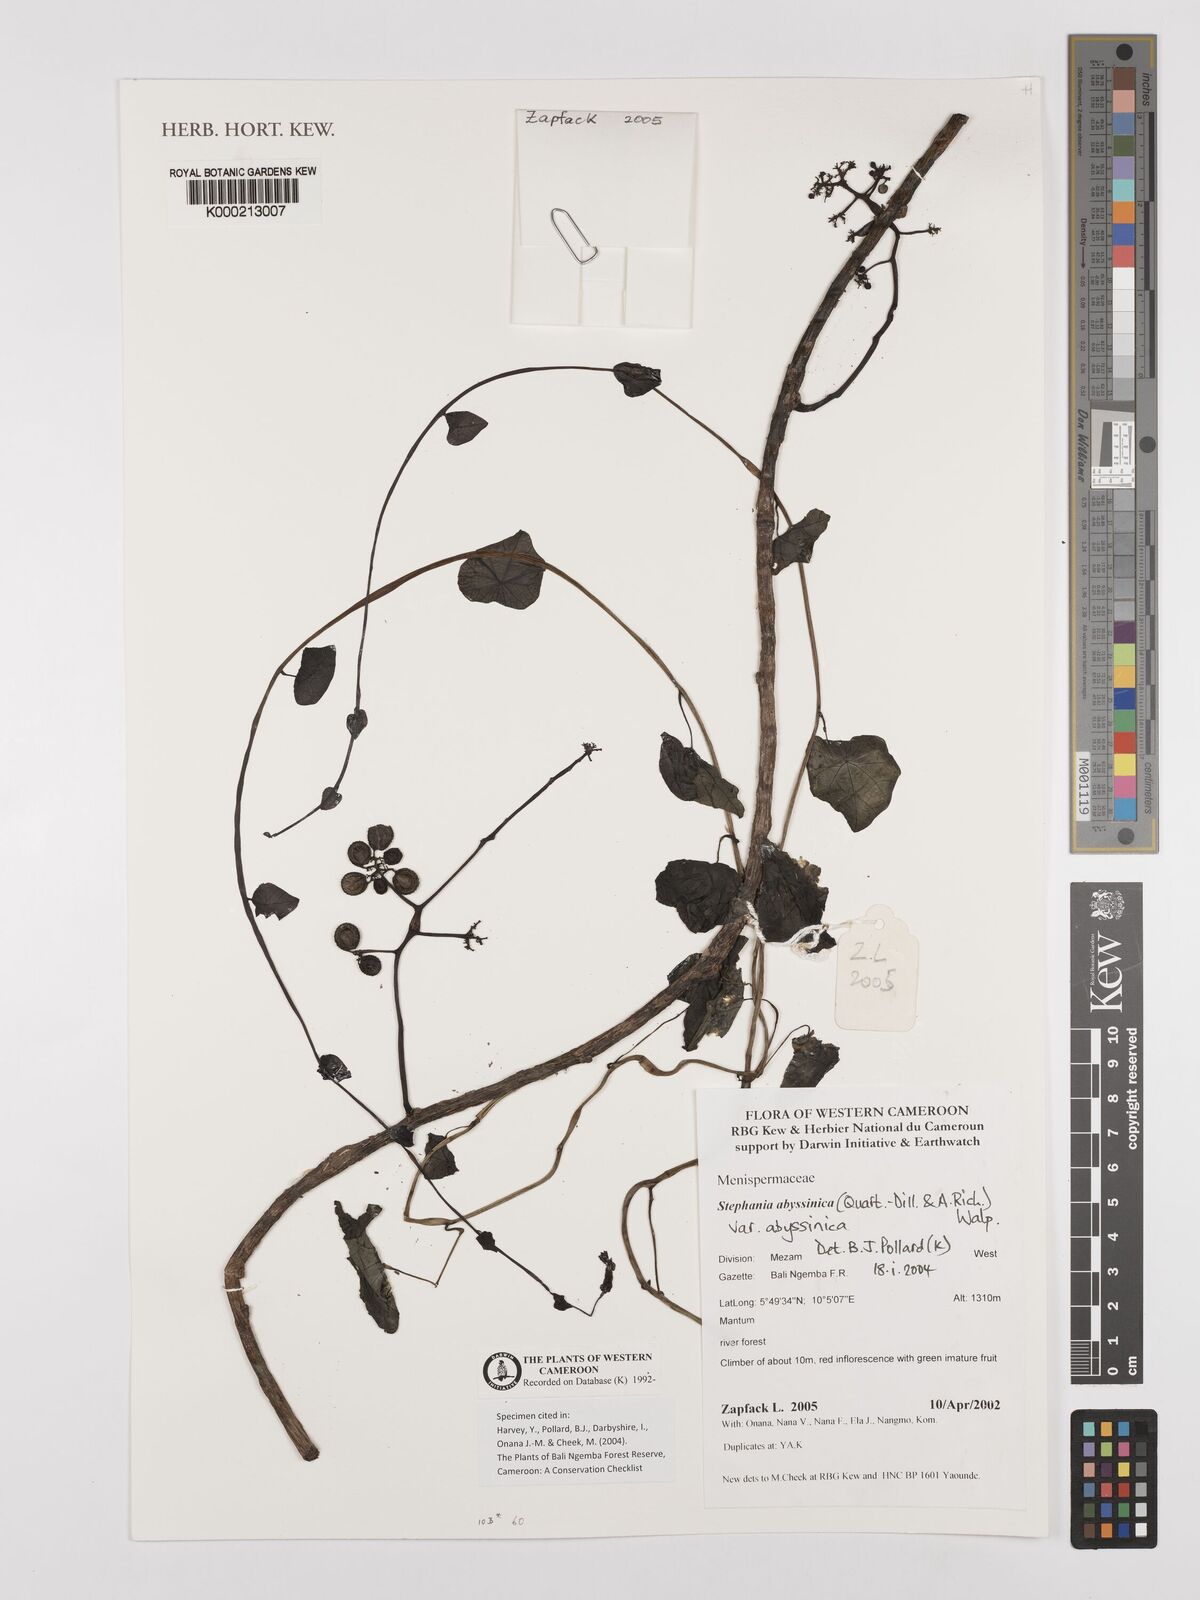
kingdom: Plantae
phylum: Tracheophyta
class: Magnoliopsida
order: Ranunculales
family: Menispermaceae
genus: Stephania
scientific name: Stephania
